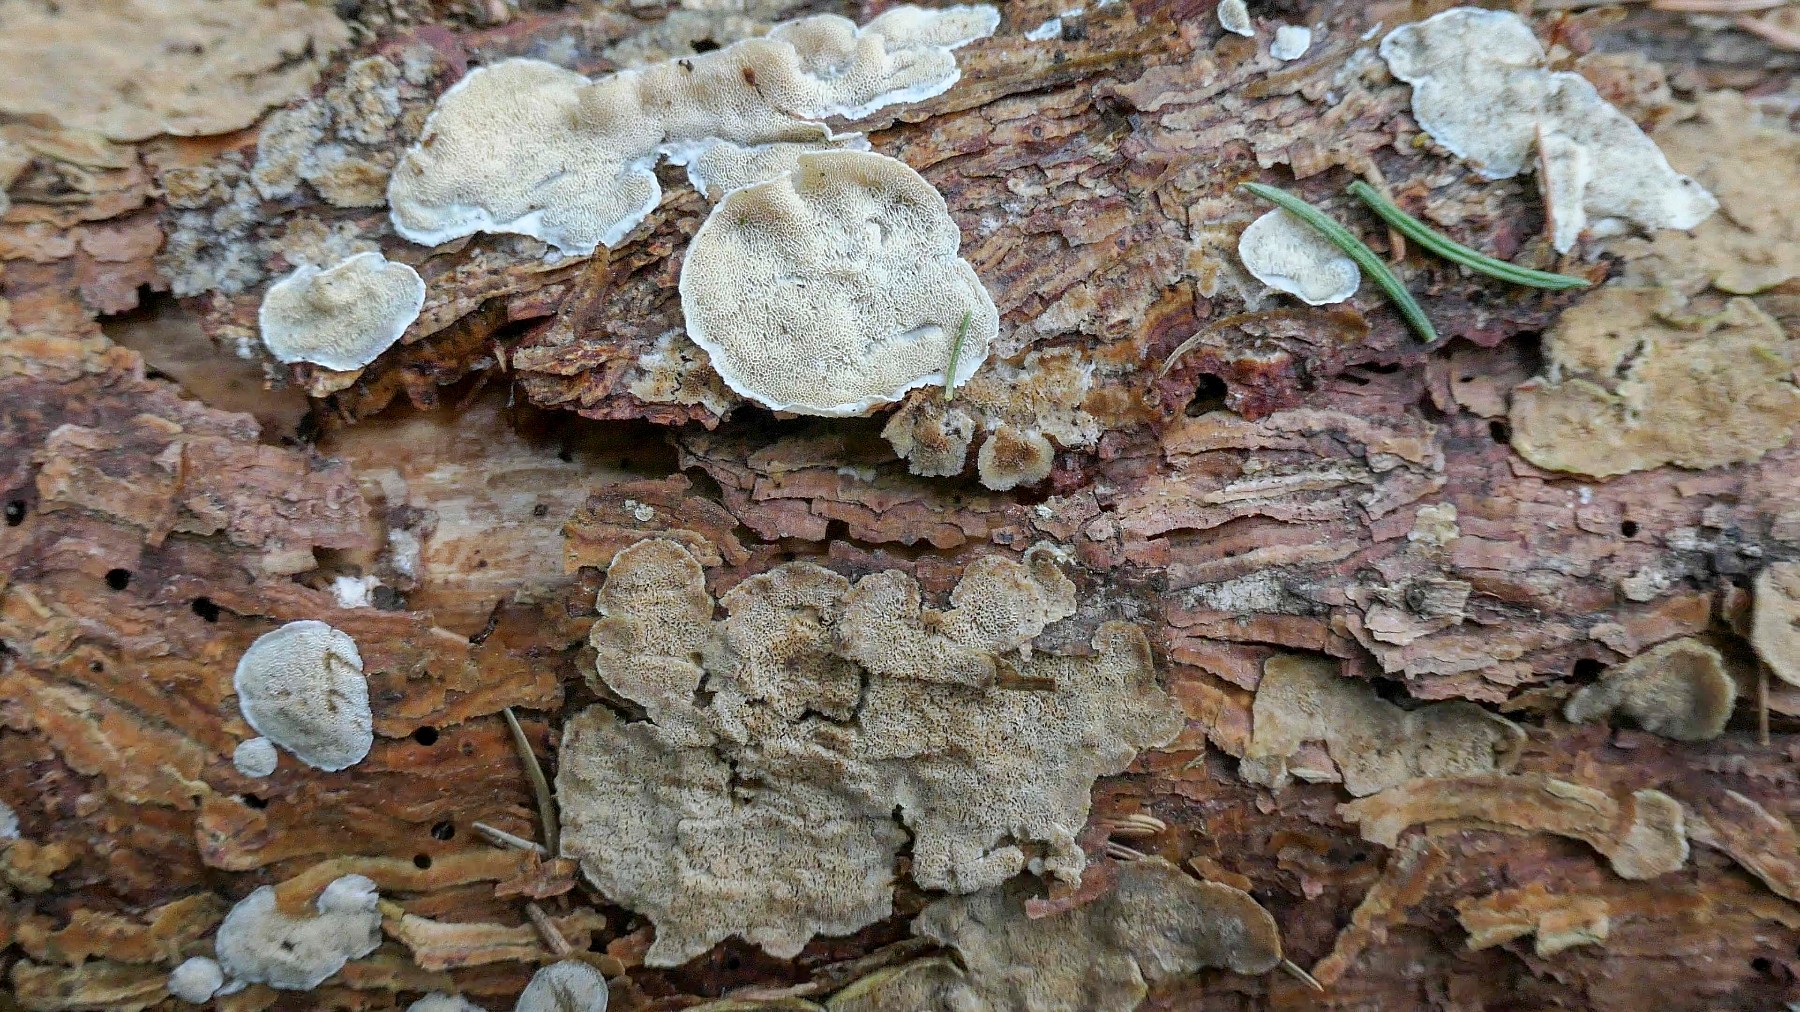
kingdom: Fungi
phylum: Basidiomycota
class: Agaricomycetes
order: Polyporales
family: Incrustoporiaceae
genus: Skeletocutis
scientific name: Skeletocutis carneogrisea
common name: rødgrå krystalporesvamp
